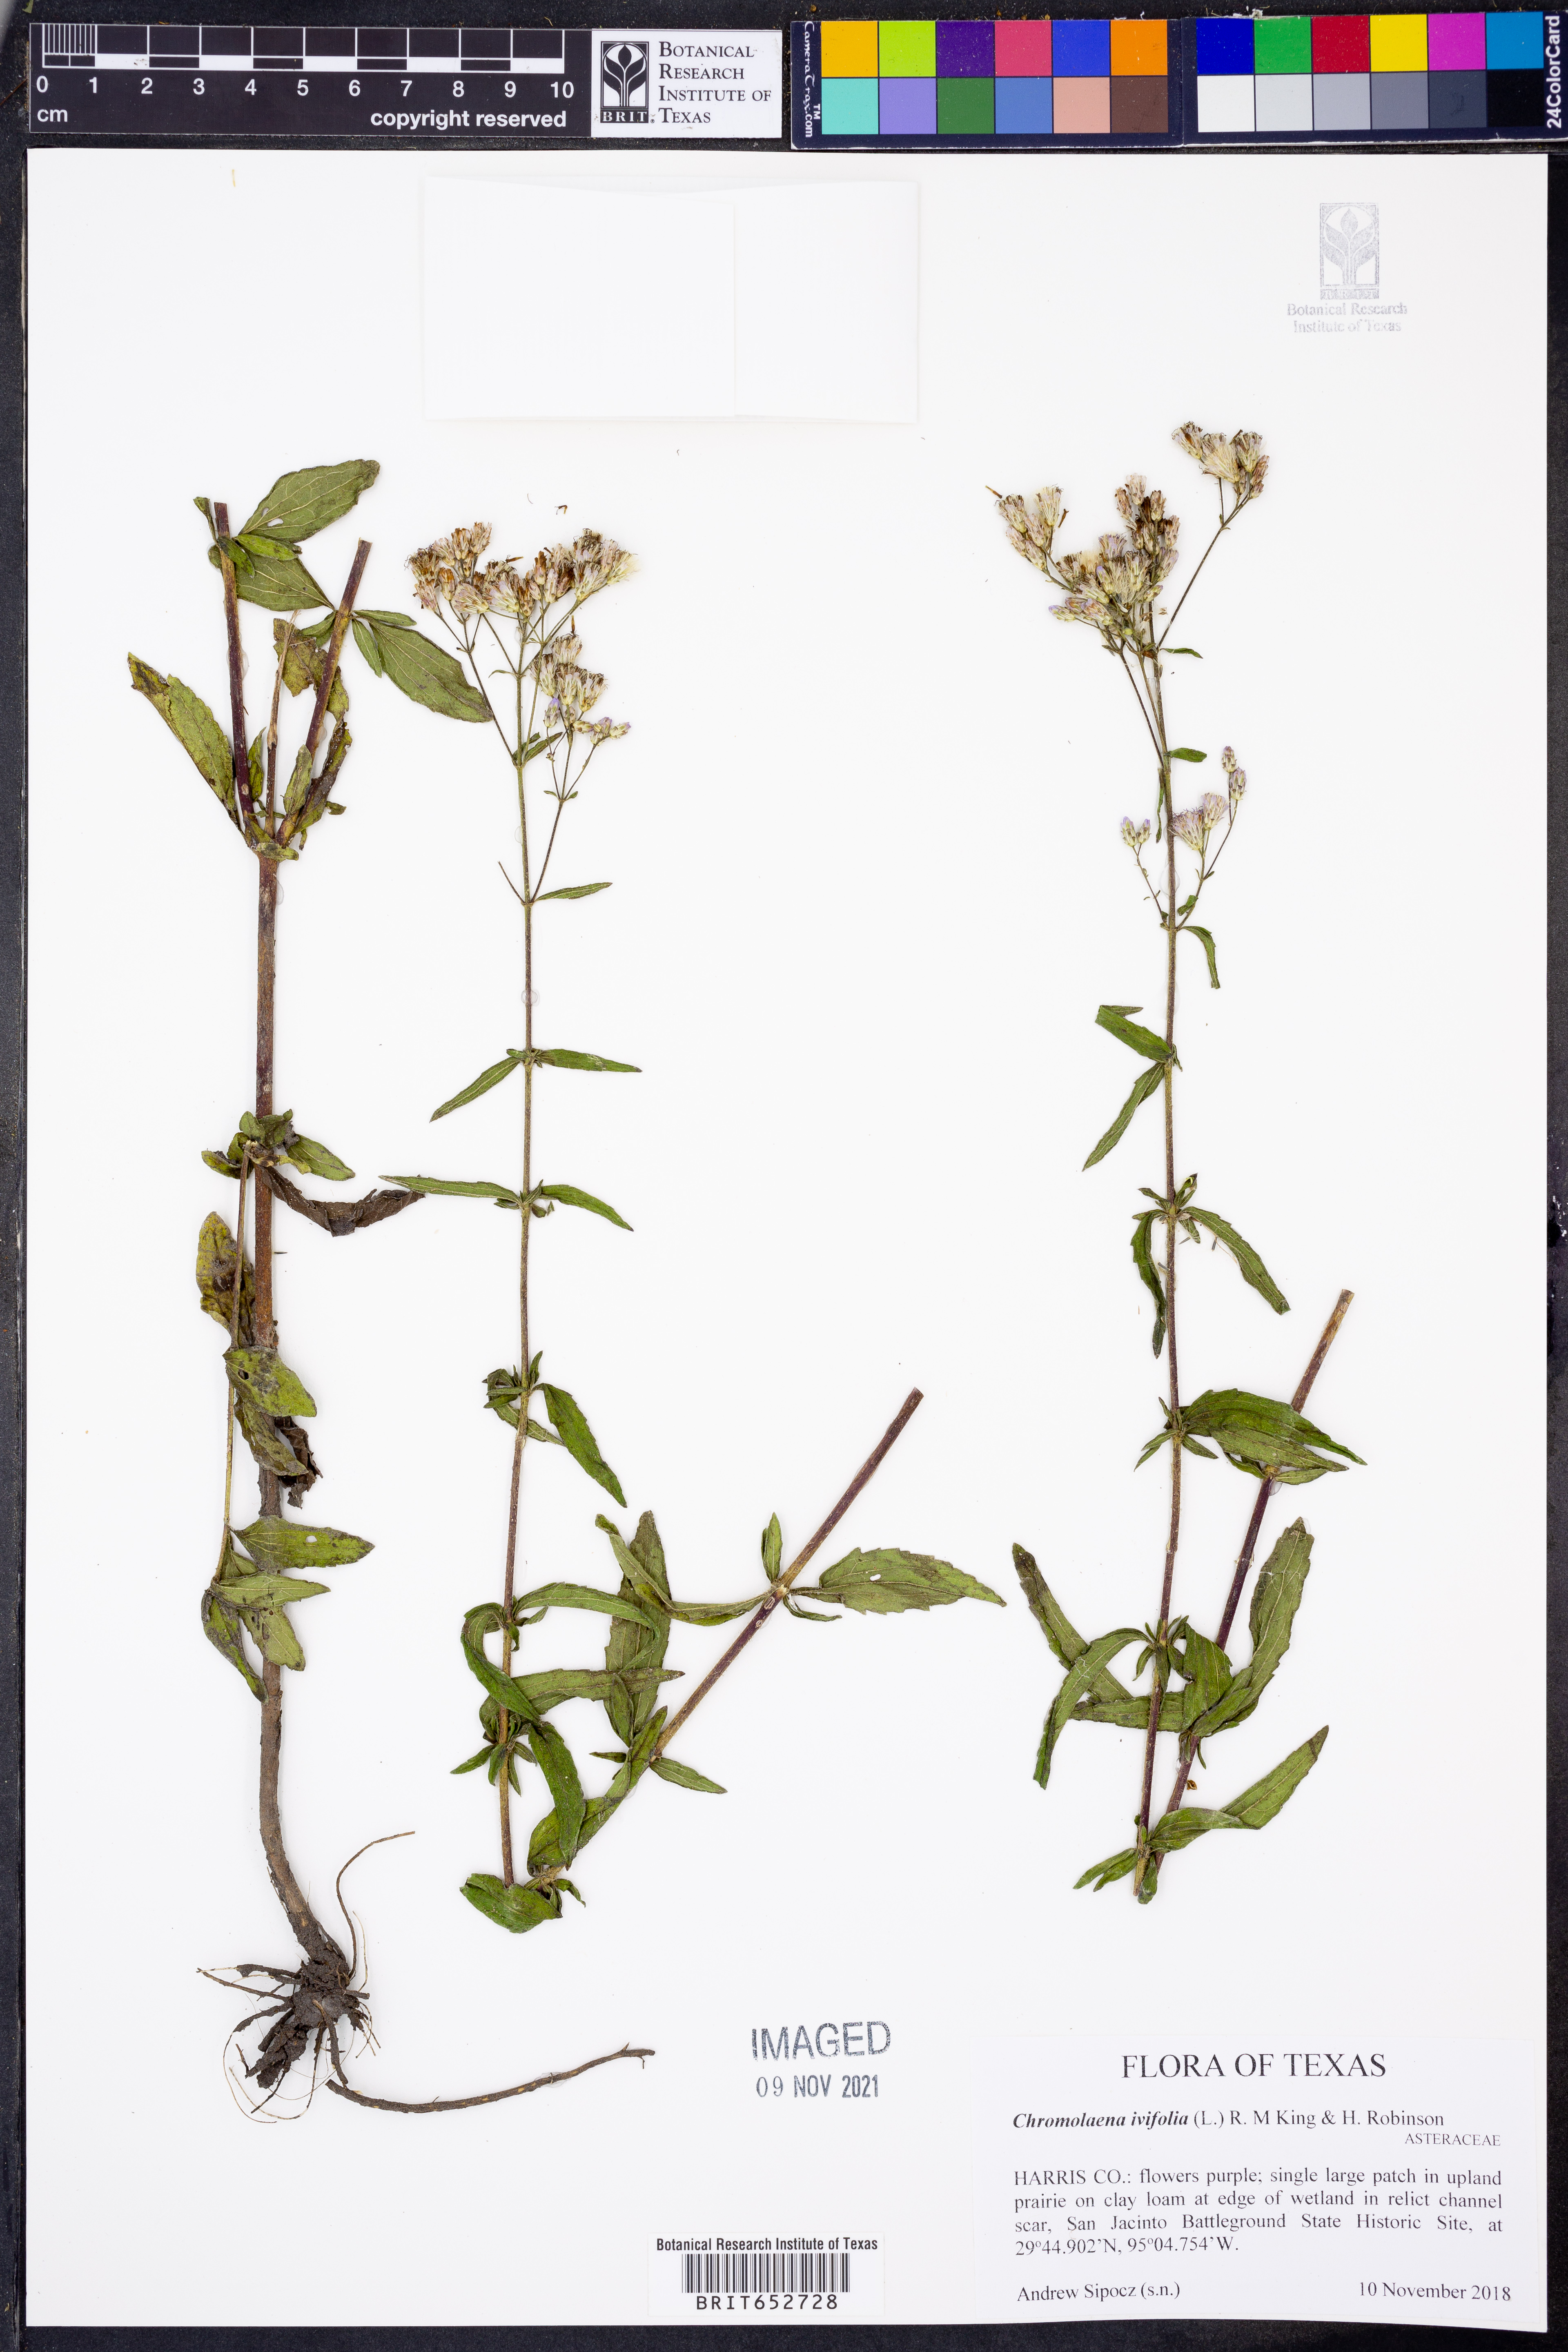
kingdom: Plantae
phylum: Tracheophyta
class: Magnoliopsida
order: Asterales
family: Asteraceae
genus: Chromolaena
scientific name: Chromolaena ivaefolia
